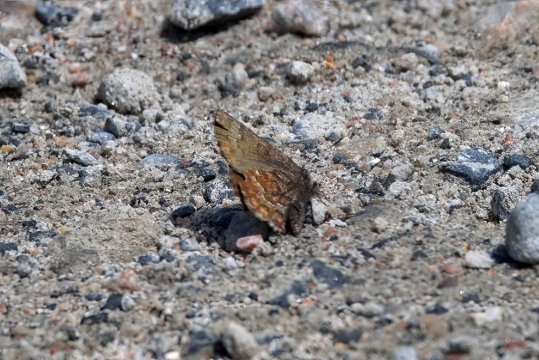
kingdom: Animalia
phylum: Arthropoda
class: Insecta
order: Lepidoptera
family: Lycaenidae
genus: Incisalia
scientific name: Incisalia niphon
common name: Eastern Pine Elfin
